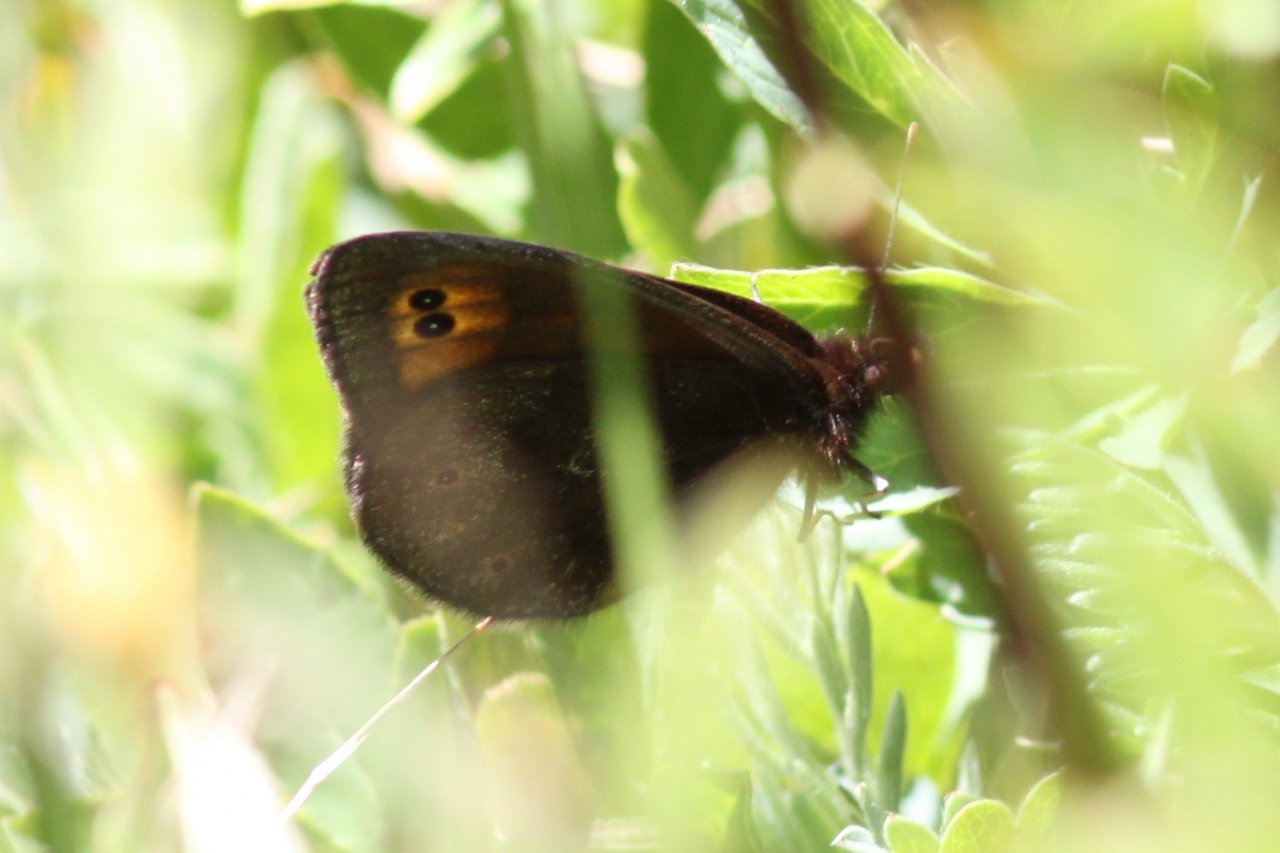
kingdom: Animalia
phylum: Arthropoda
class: Insecta
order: Lepidoptera
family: Nymphalidae
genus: Erebia
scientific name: Erebia epipsodea
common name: Common Alpine
